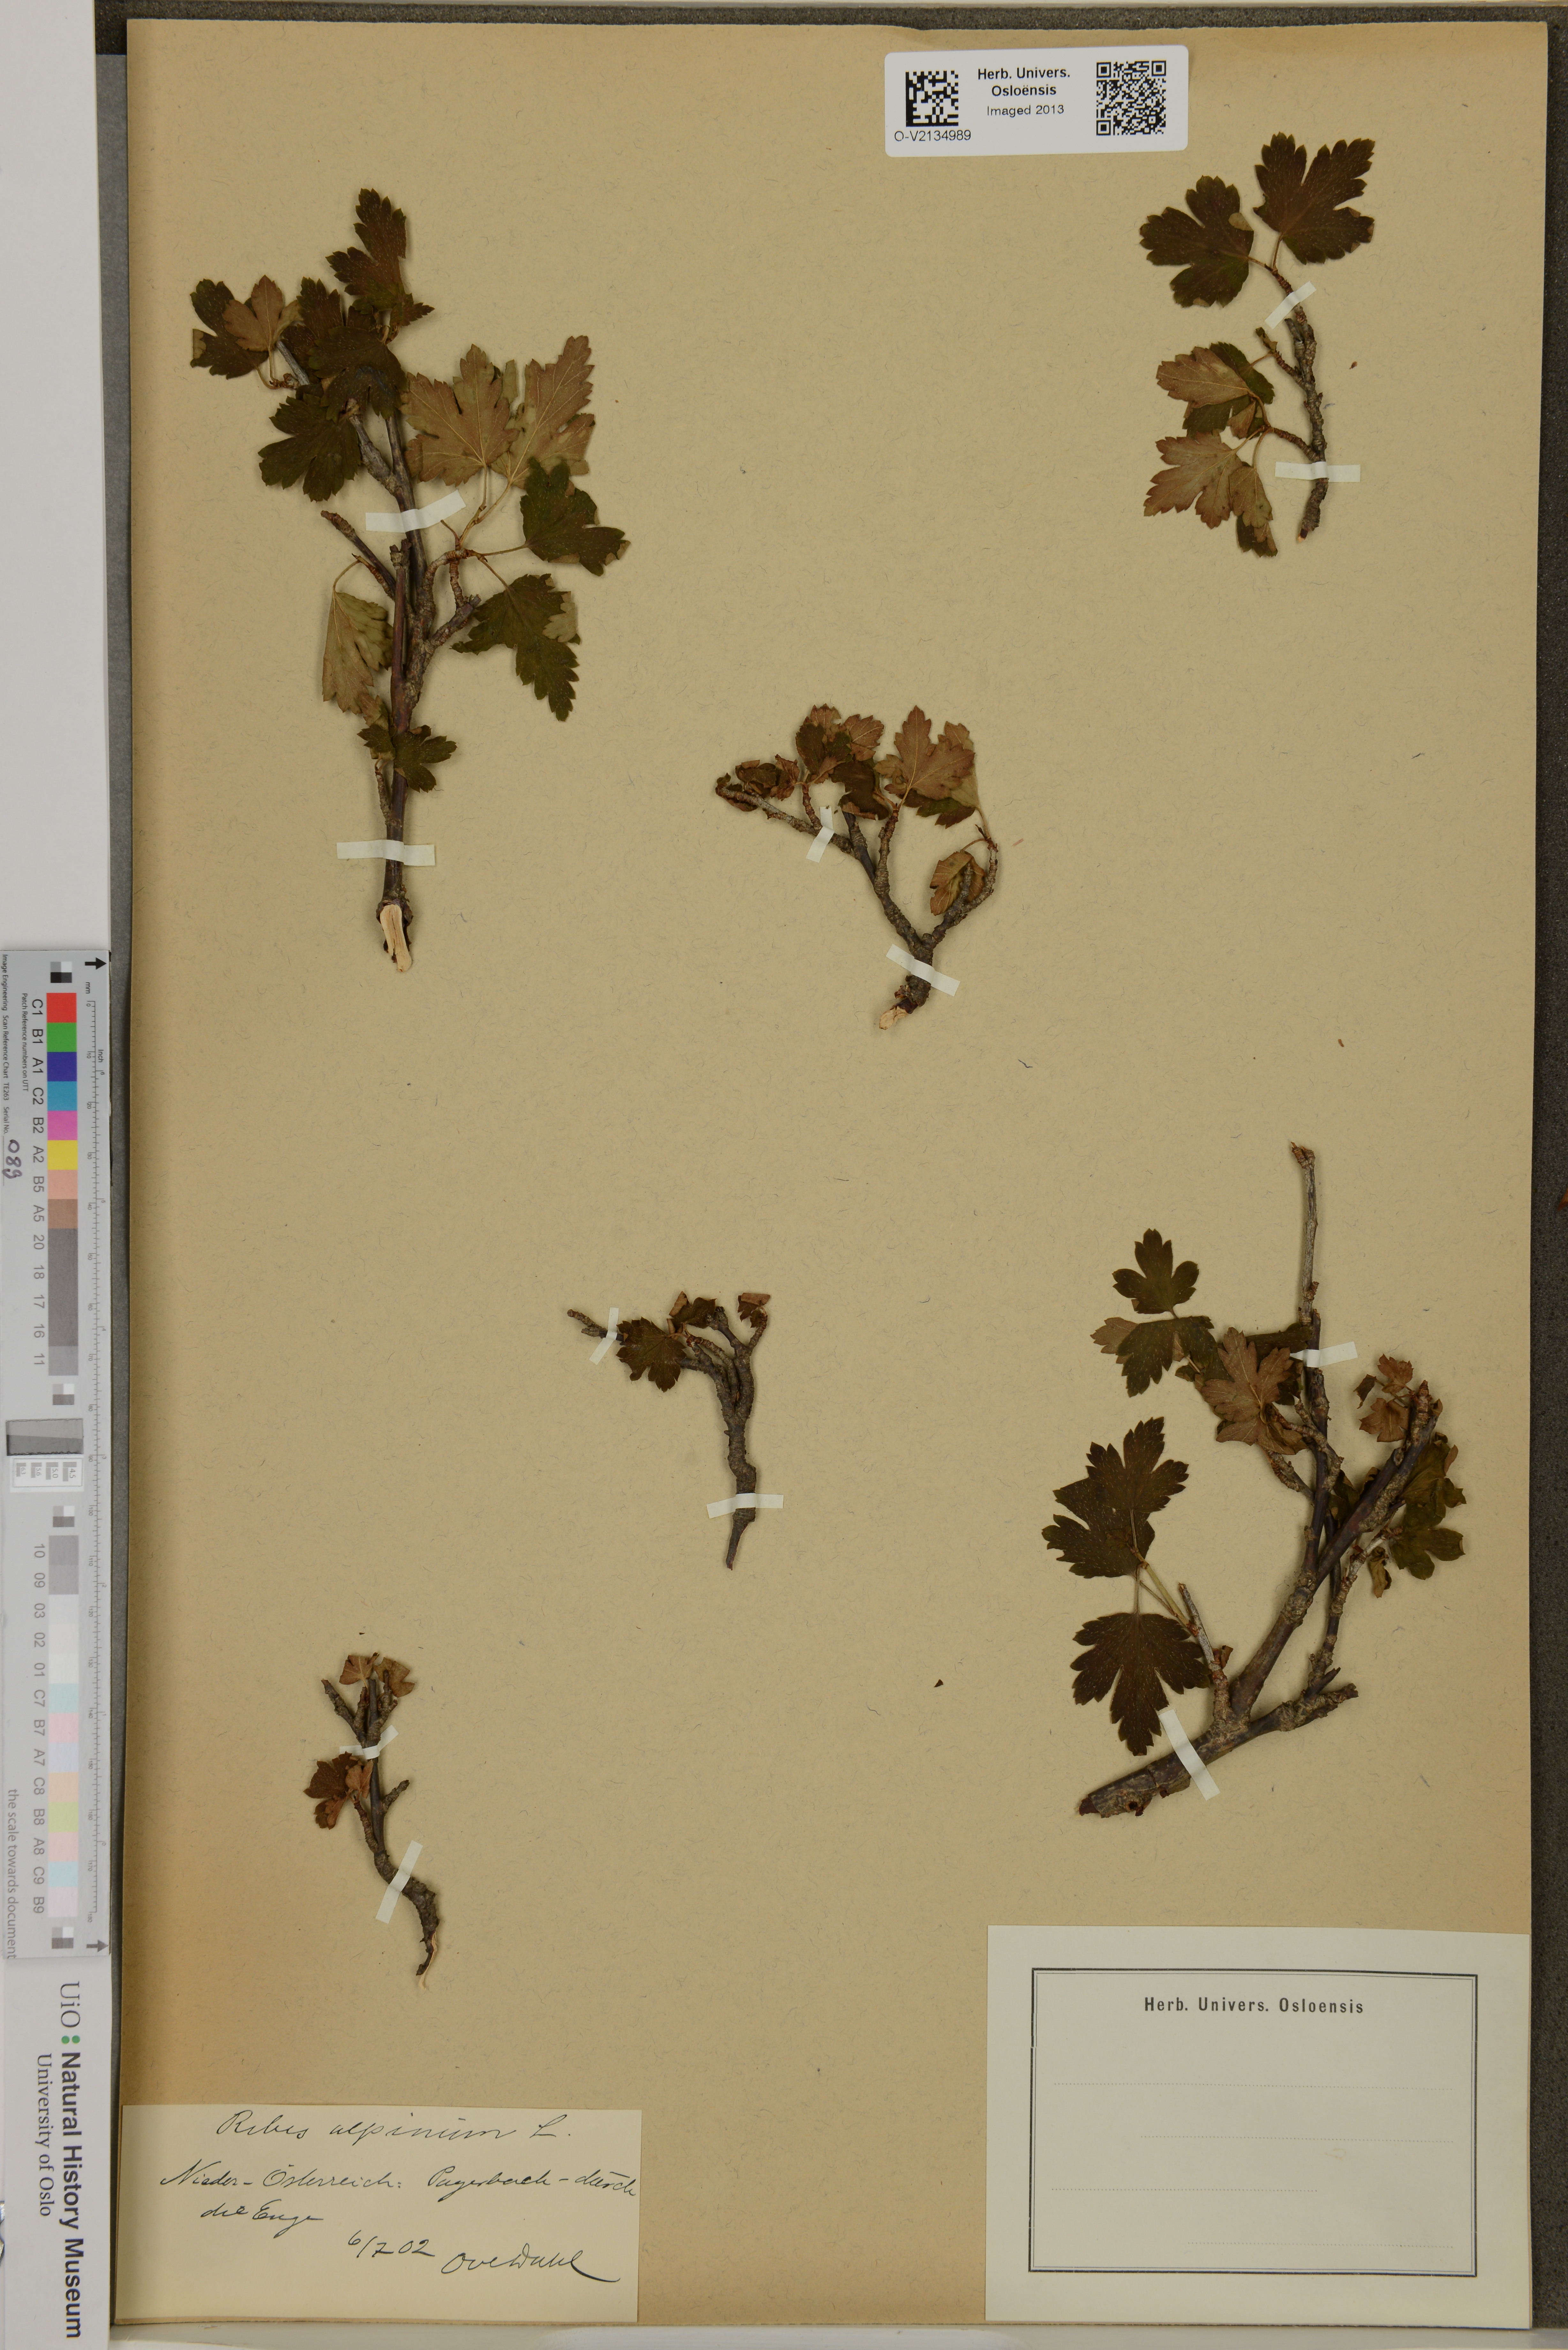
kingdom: Plantae
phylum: Tracheophyta
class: Magnoliopsida
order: Saxifragales
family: Grossulariaceae
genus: Ribes
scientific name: Ribes alpinum
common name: Alpine currant
